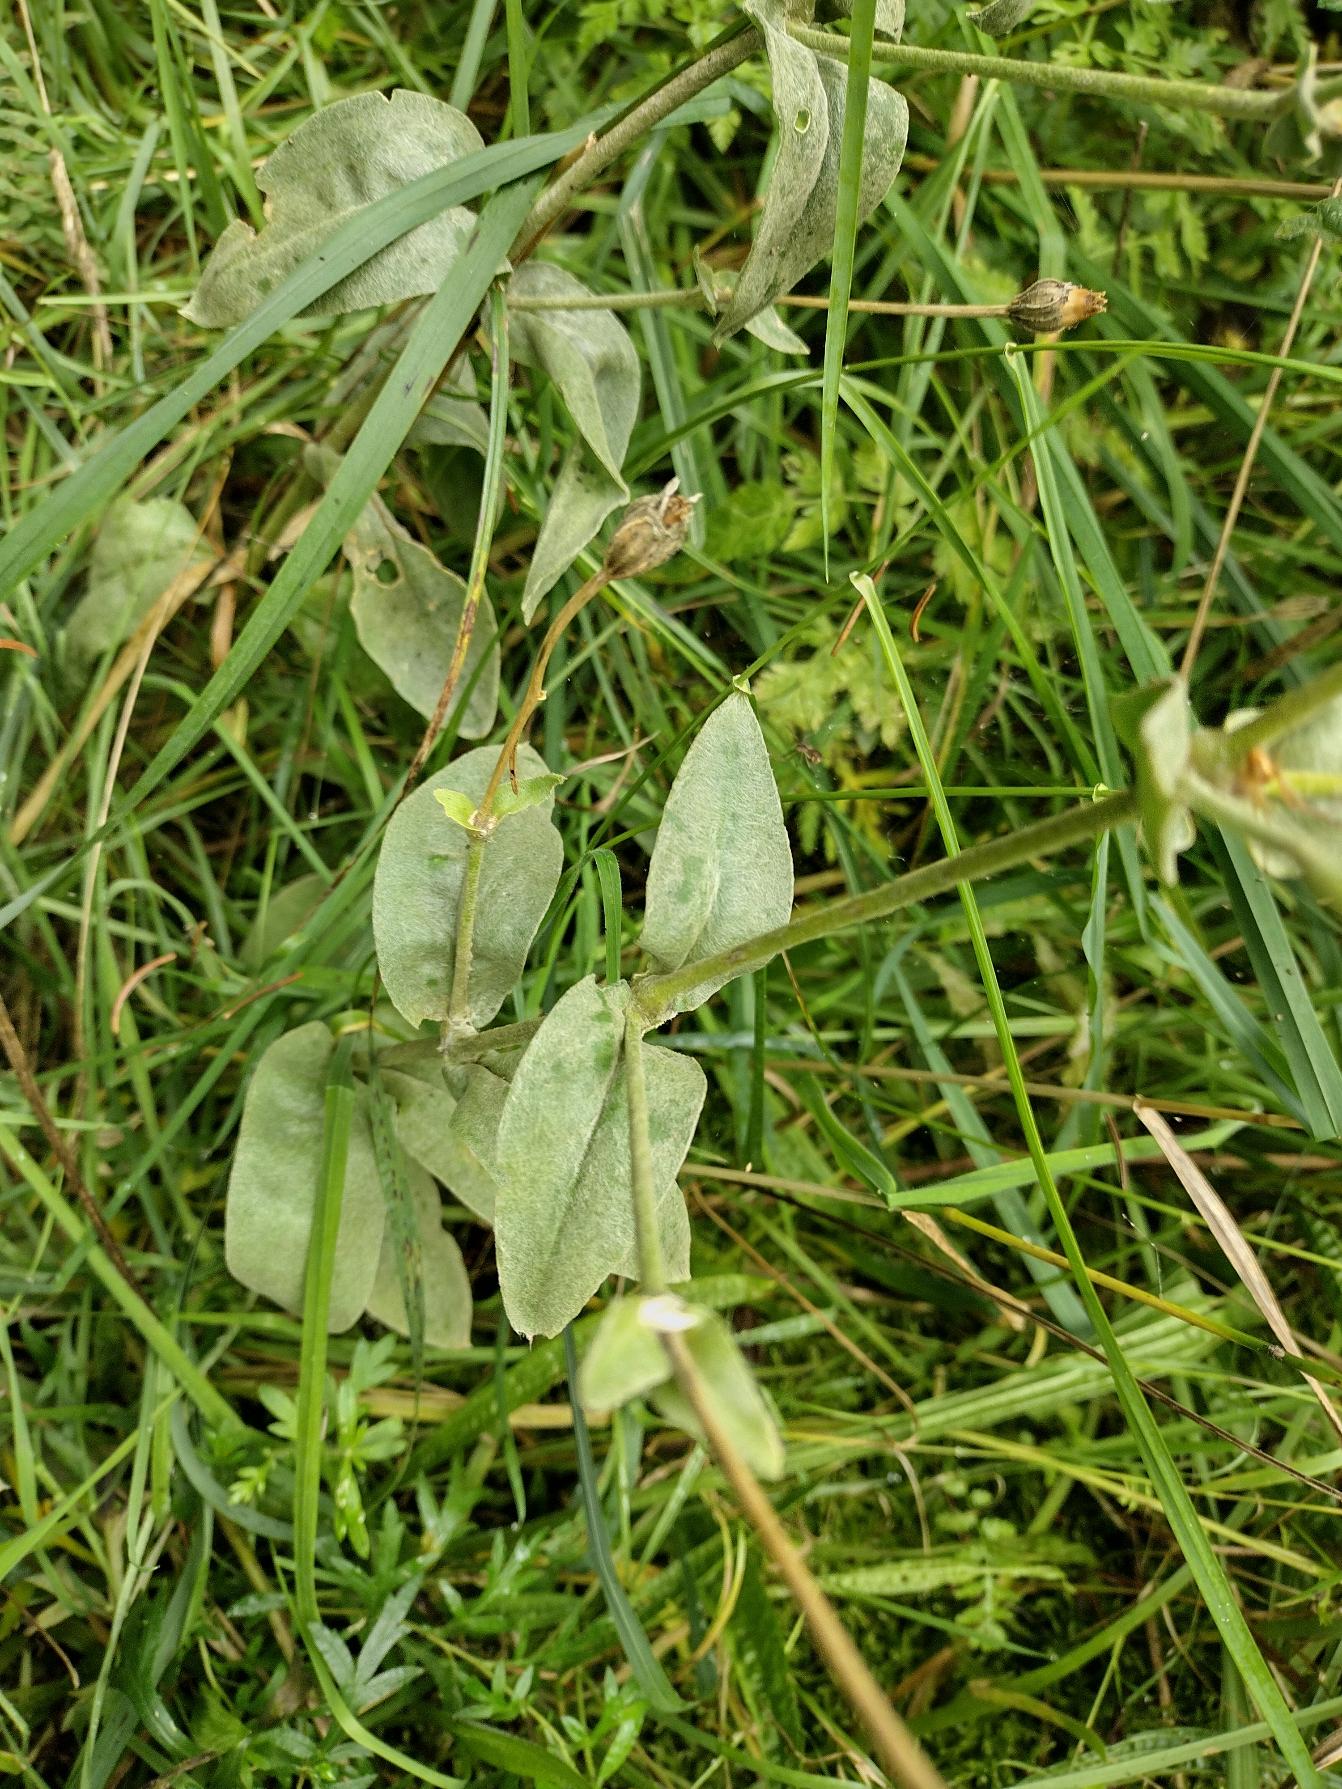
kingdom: Plantae
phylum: Tracheophyta
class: Magnoliopsida
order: Caryophyllales
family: Caryophyllaceae
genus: Silene
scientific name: Silene coronaria
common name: Fiksernellike
